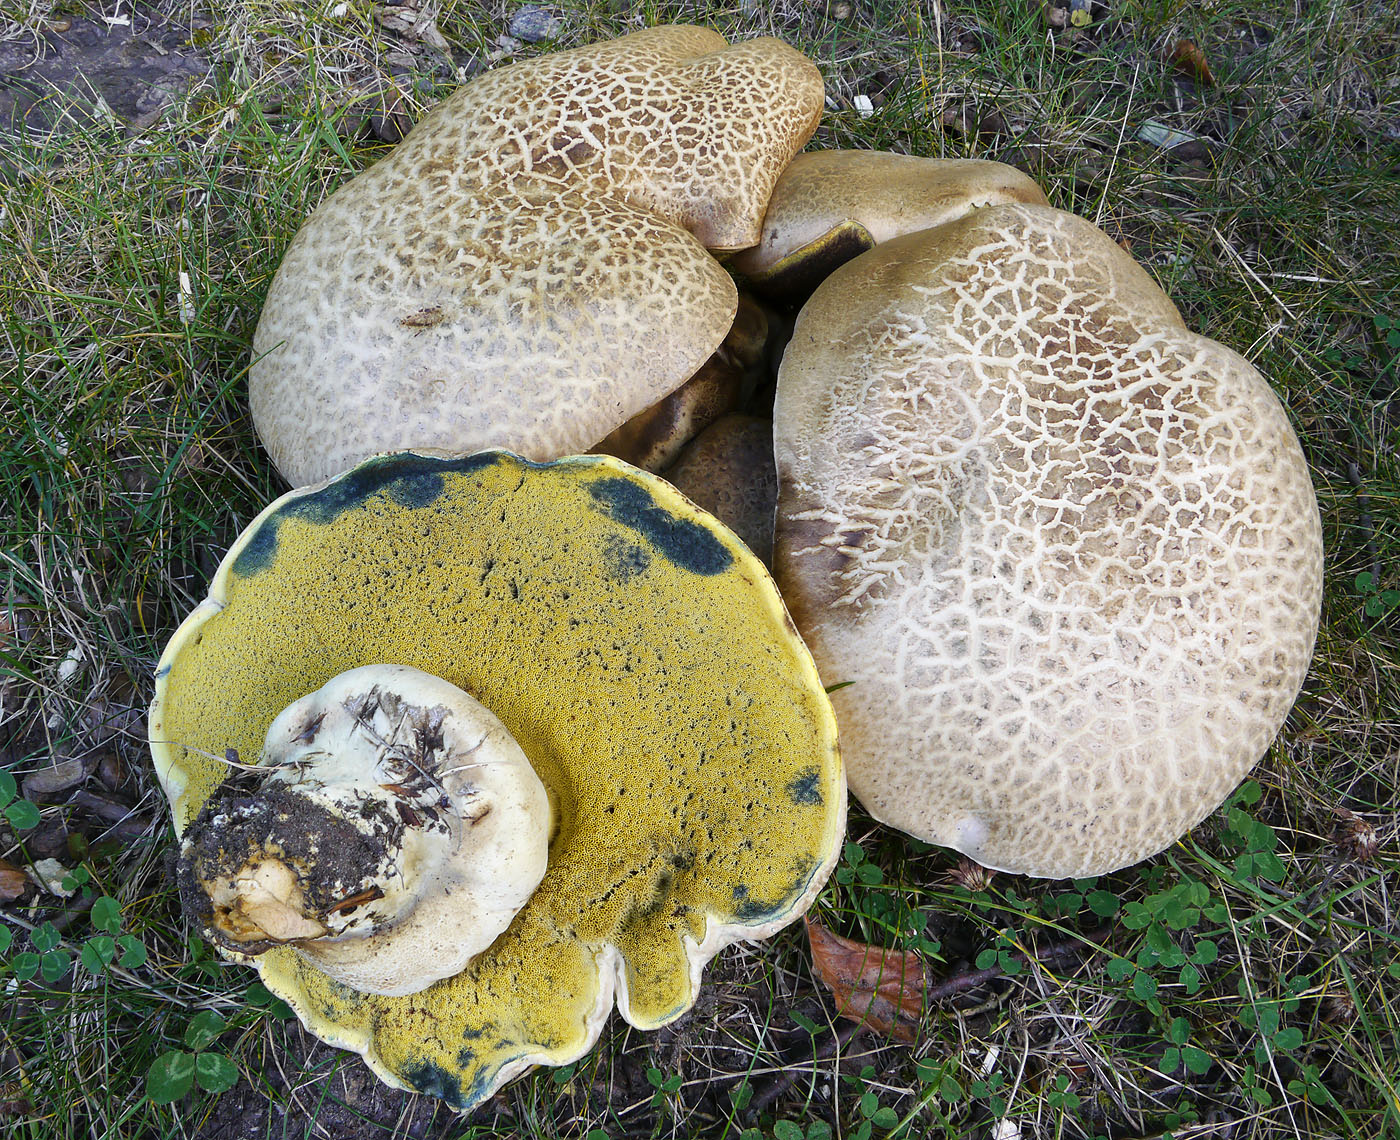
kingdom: Fungi
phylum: Basidiomycota
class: Agaricomycetes
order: Boletales
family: Boletaceae
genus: Caloboletus
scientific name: Caloboletus radicans
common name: rod-rørhat
